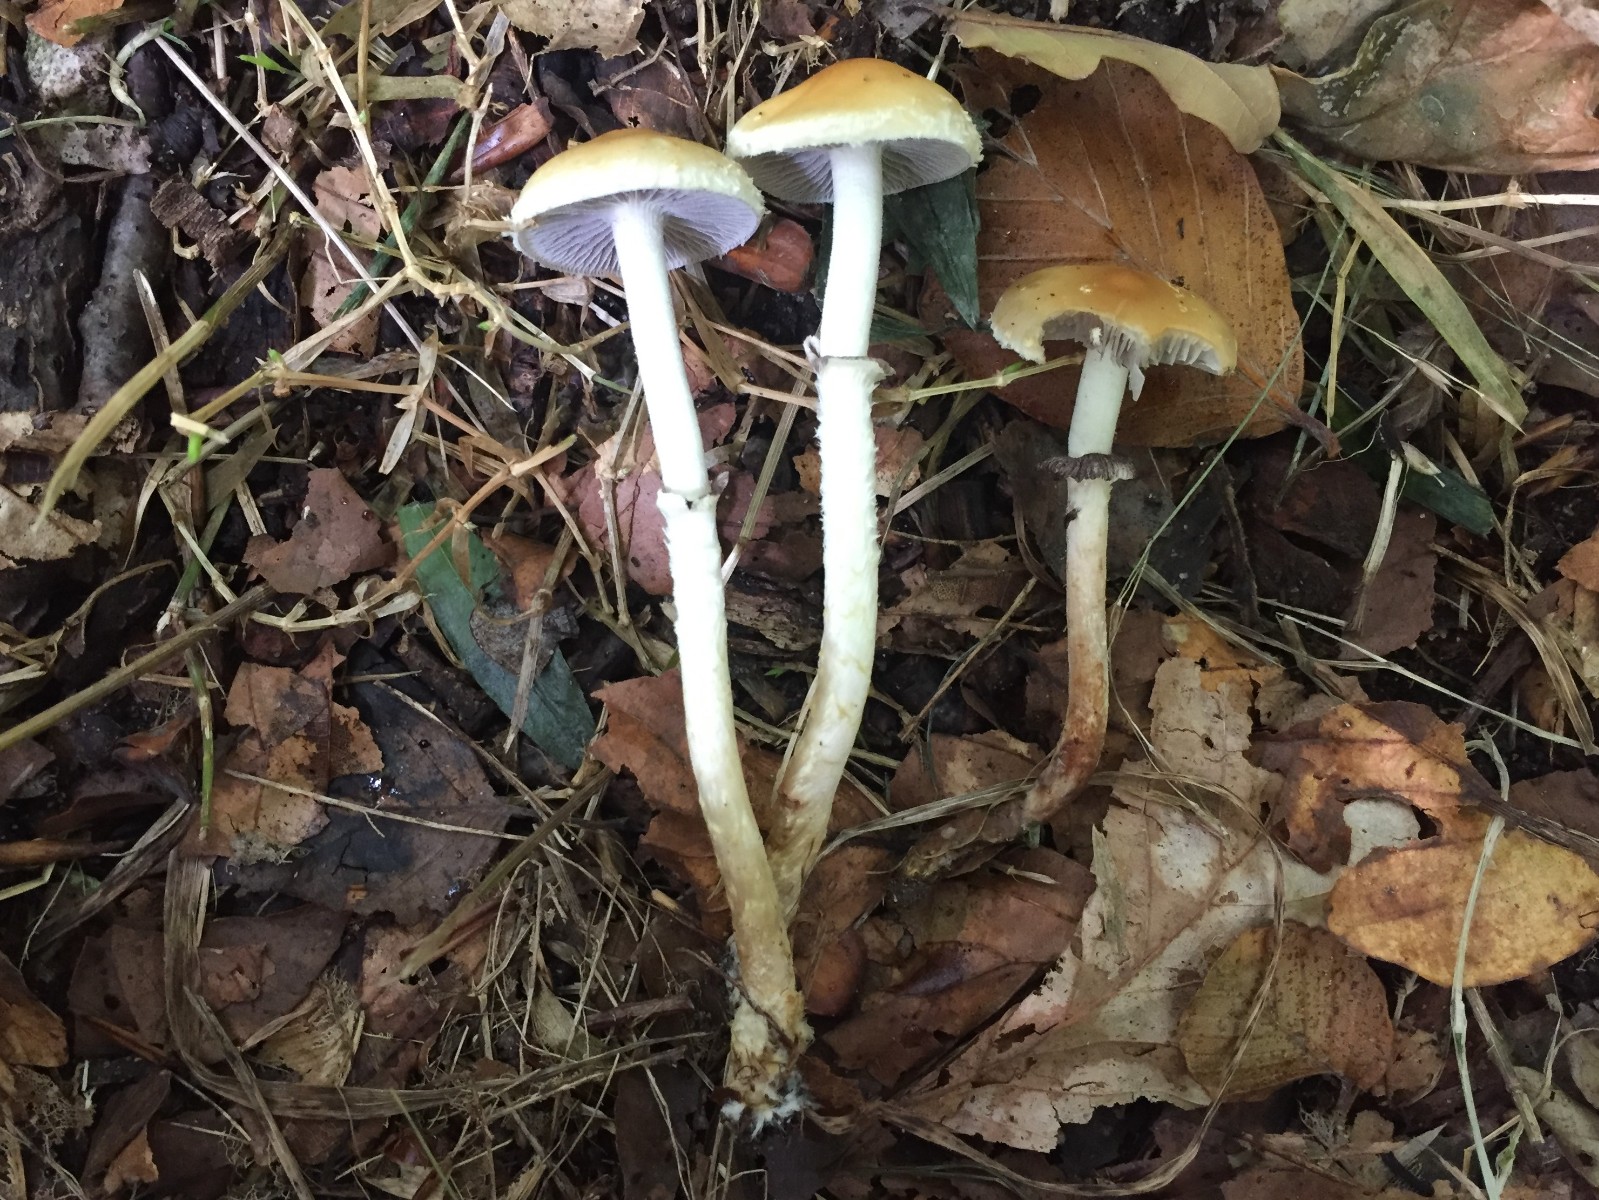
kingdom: Fungi
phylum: Basidiomycota
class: Agaricomycetes
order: Agaricales
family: Strophariaceae
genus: Leratiomyces
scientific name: Leratiomyces squamosus
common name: skællet bredblad
